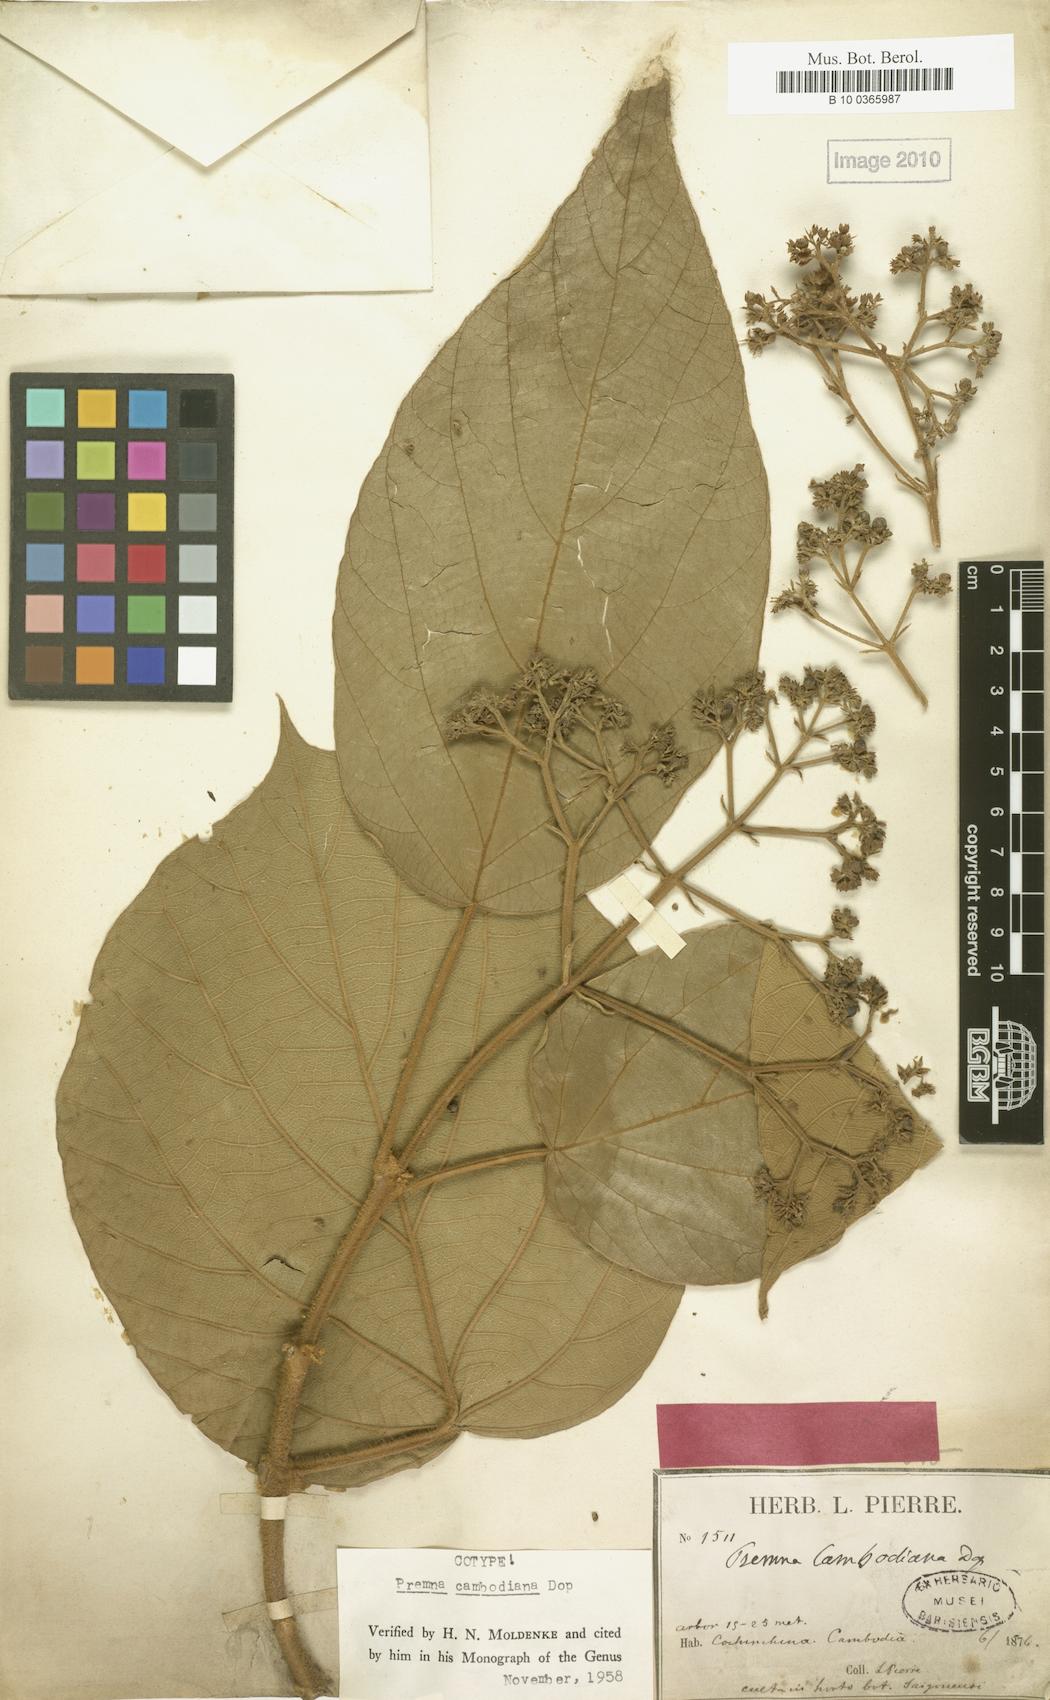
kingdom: Plantae
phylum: Tracheophyta
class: Magnoliopsida
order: Lamiales
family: Lamiaceae
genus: Premna
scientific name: Premna cambodiana
